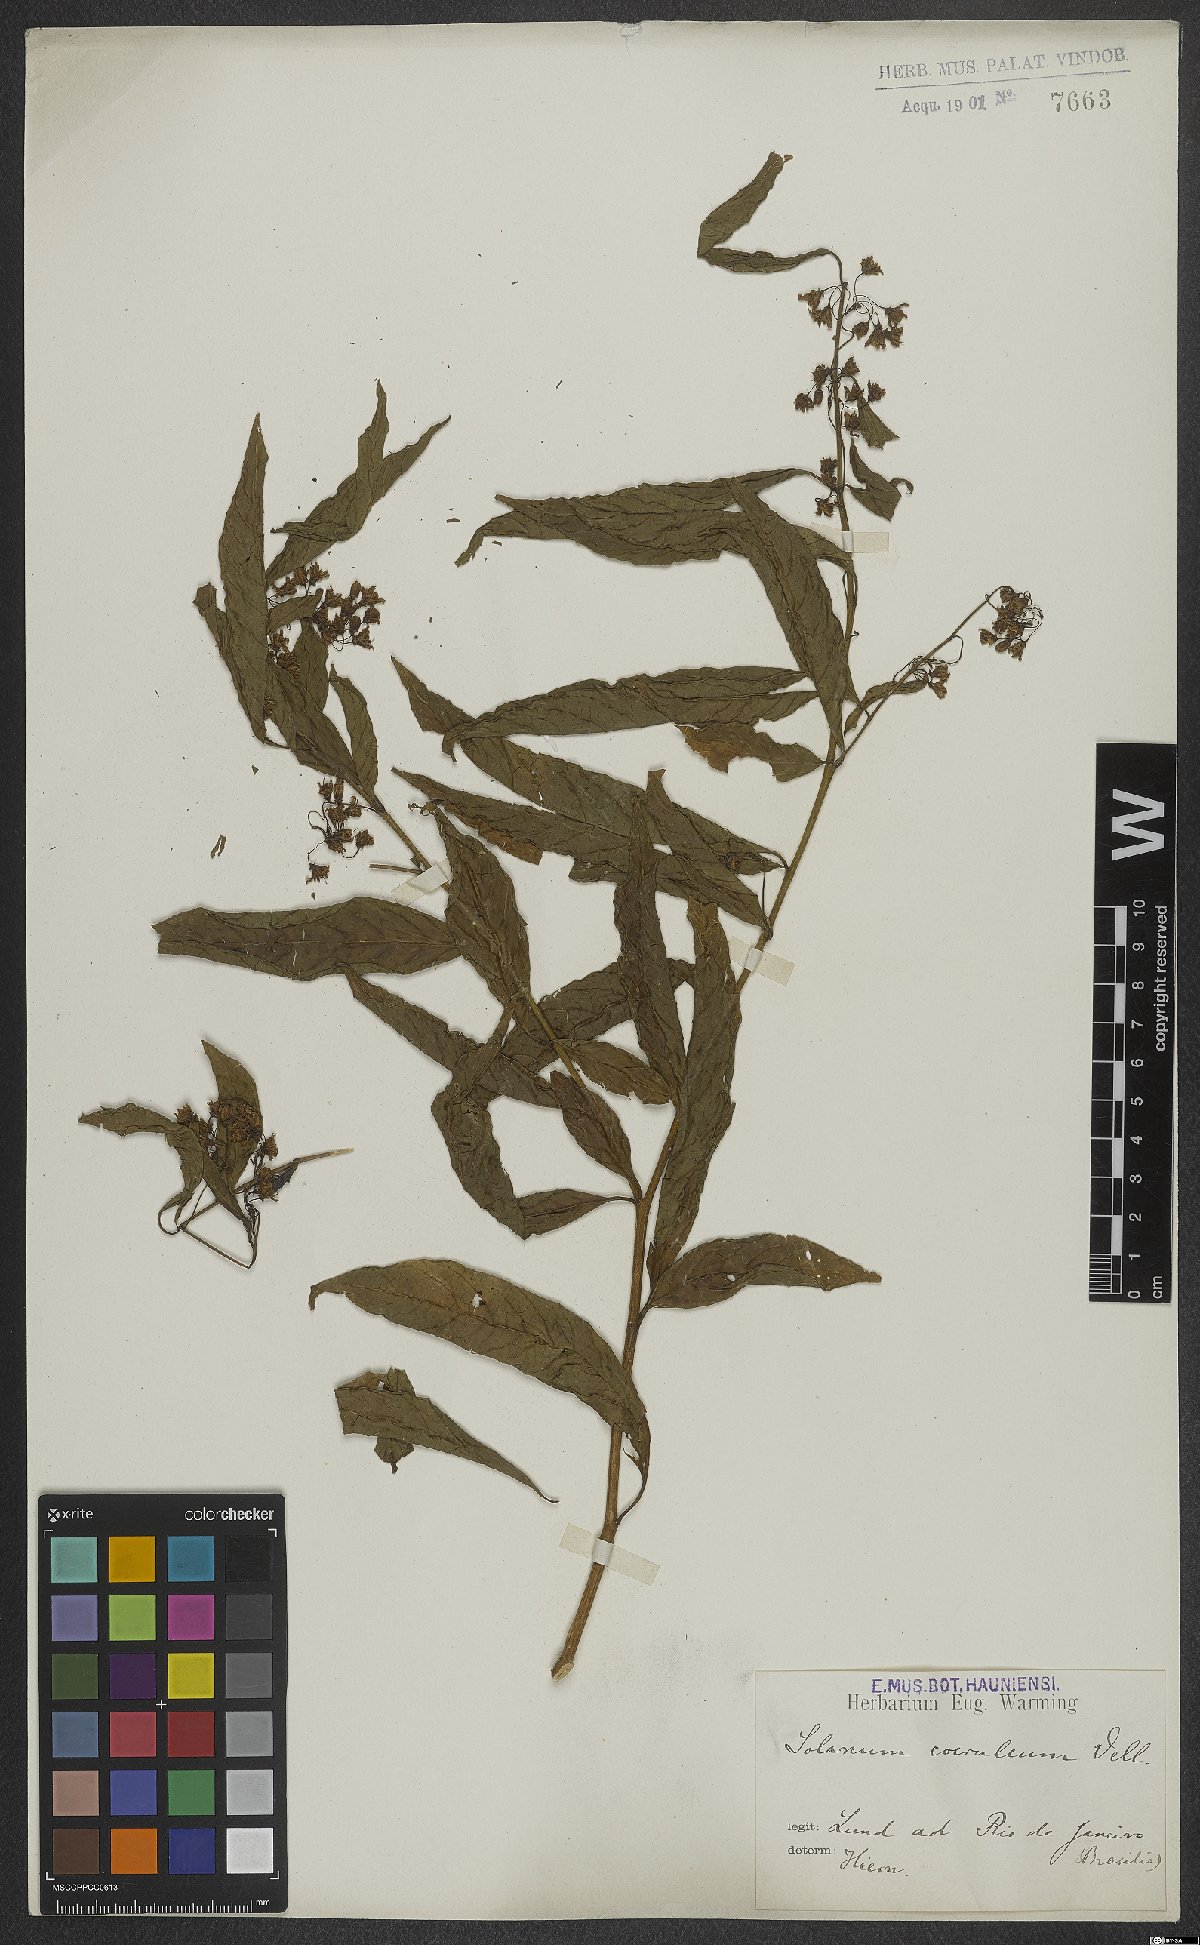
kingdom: Plantae
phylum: Tracheophyta
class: Magnoliopsida
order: Solanales
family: Solanaceae
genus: Solanum
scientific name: Solanum campaniforme
